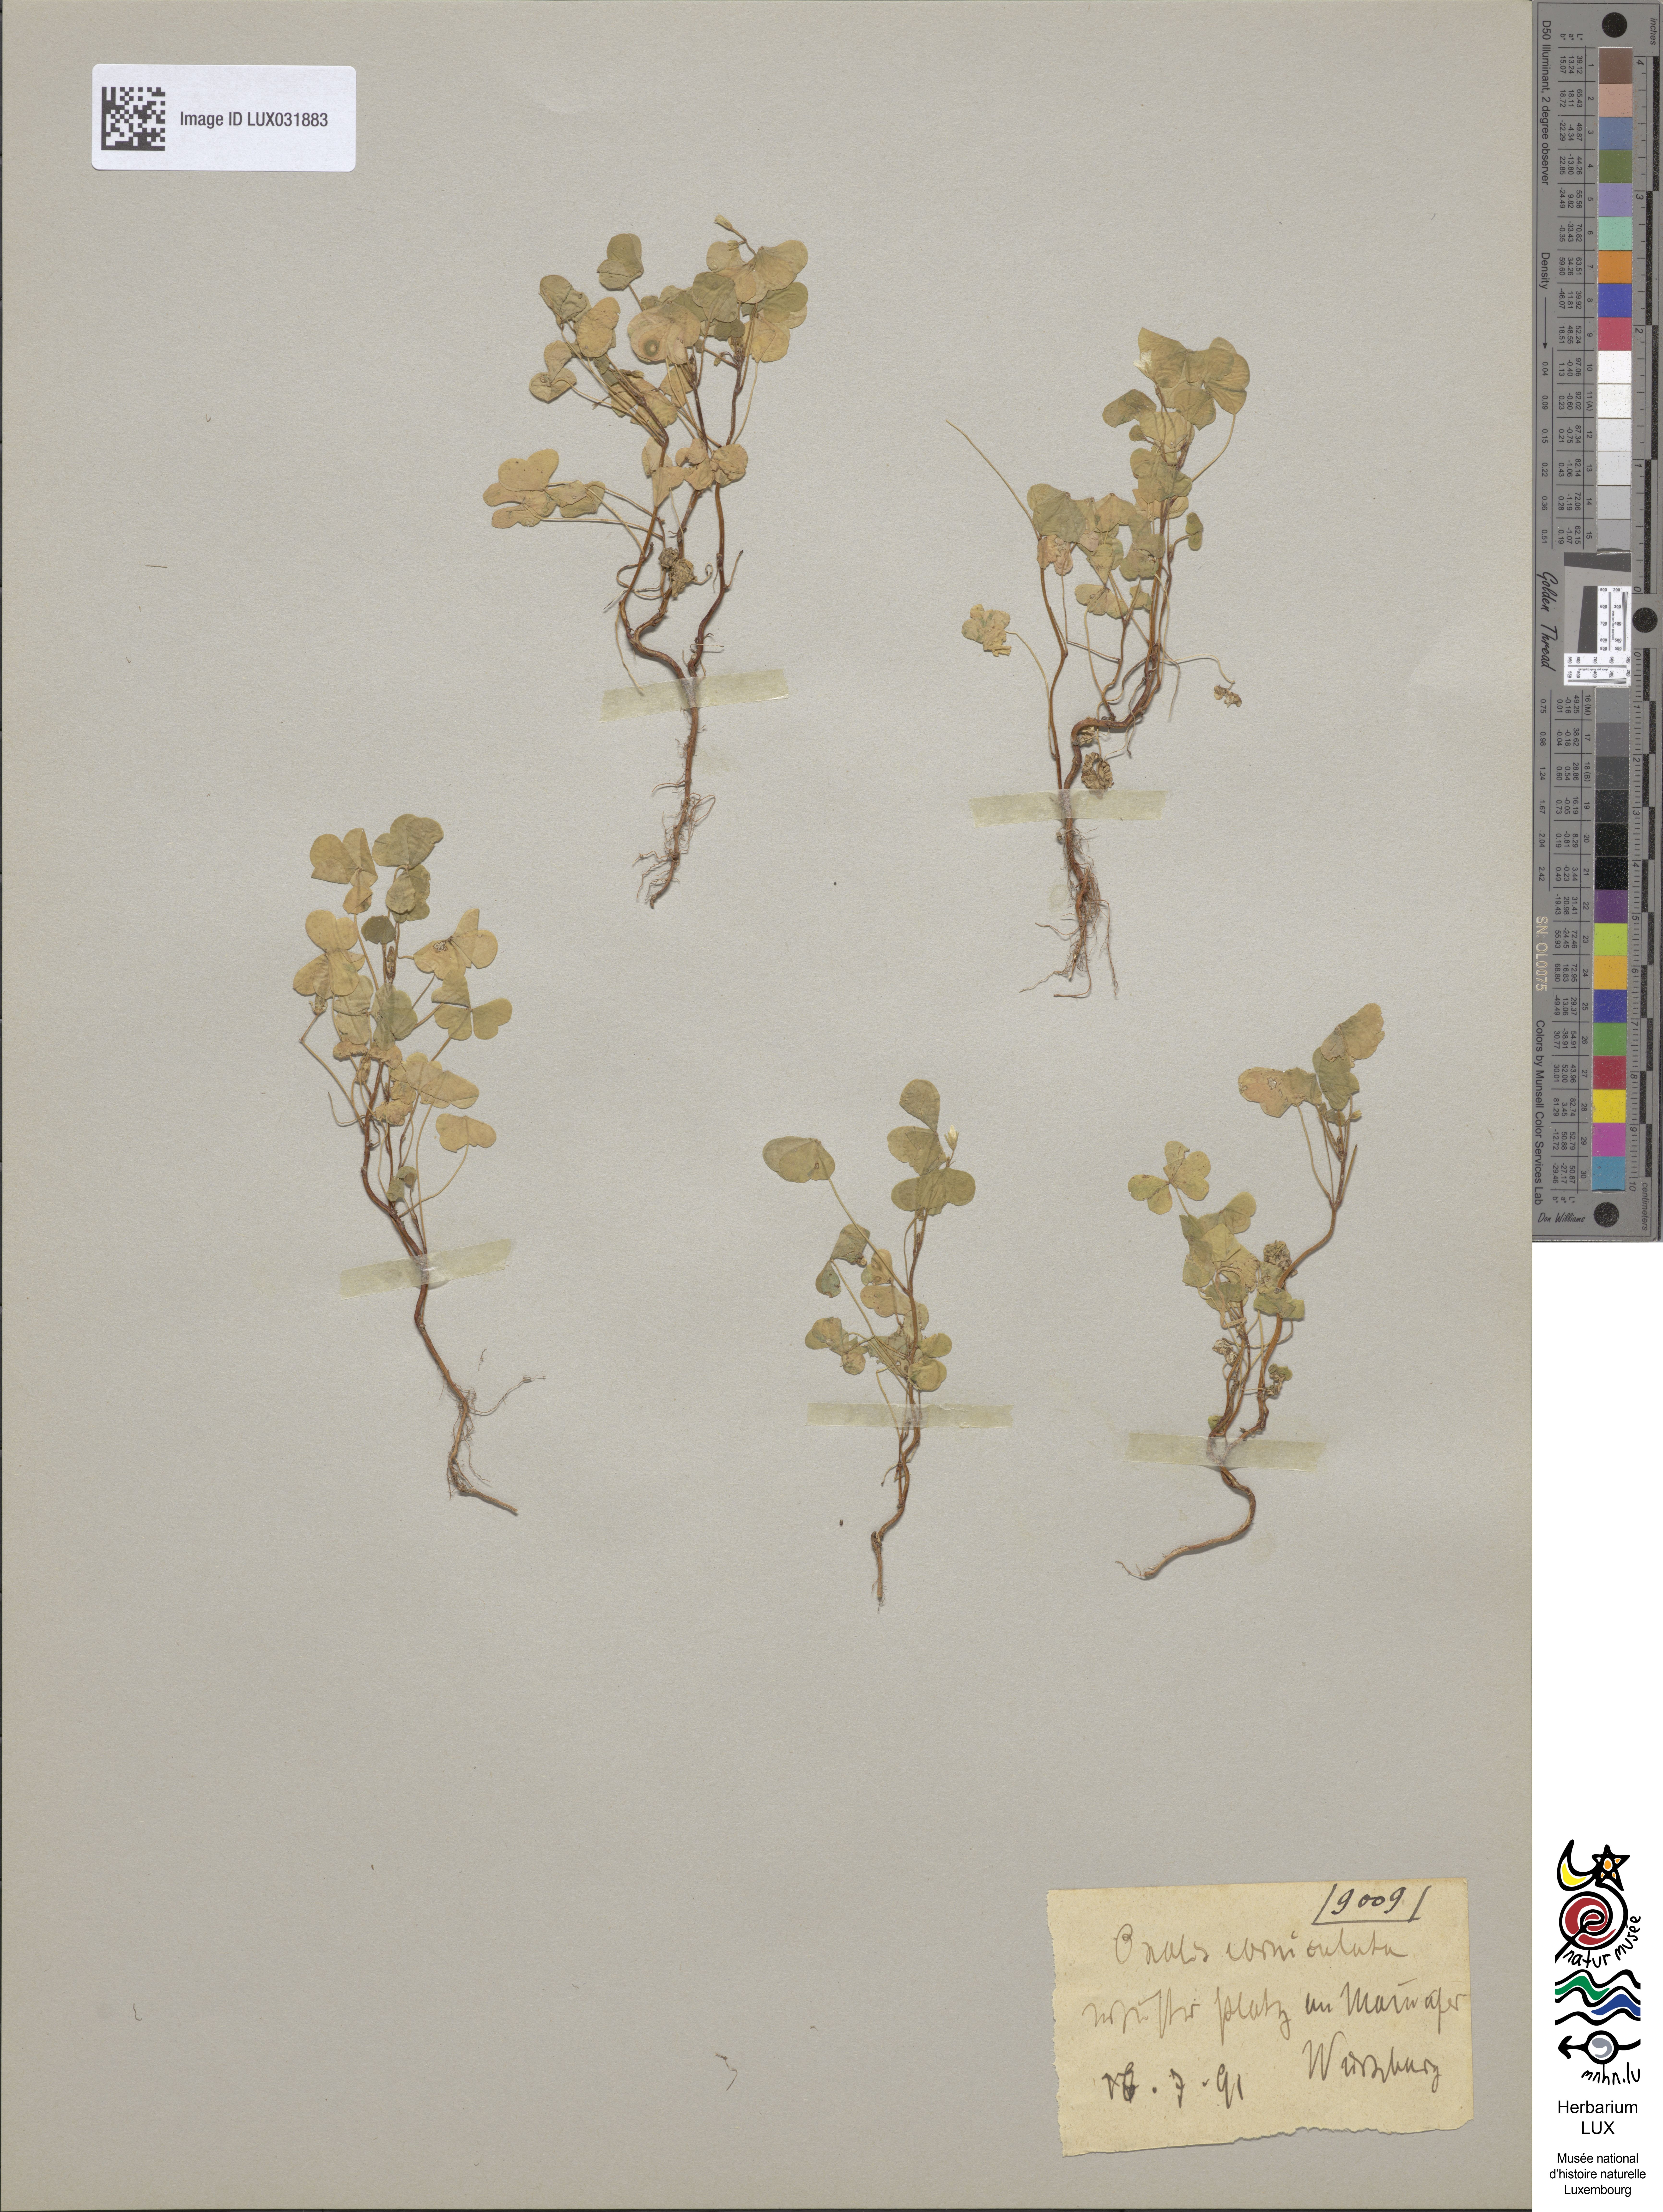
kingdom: Plantae
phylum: Tracheophyta
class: Magnoliopsida
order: Oxalidales
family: Oxalidaceae
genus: Oxalis
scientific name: Oxalis corniculata
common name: Procumbent yellow-sorrel
